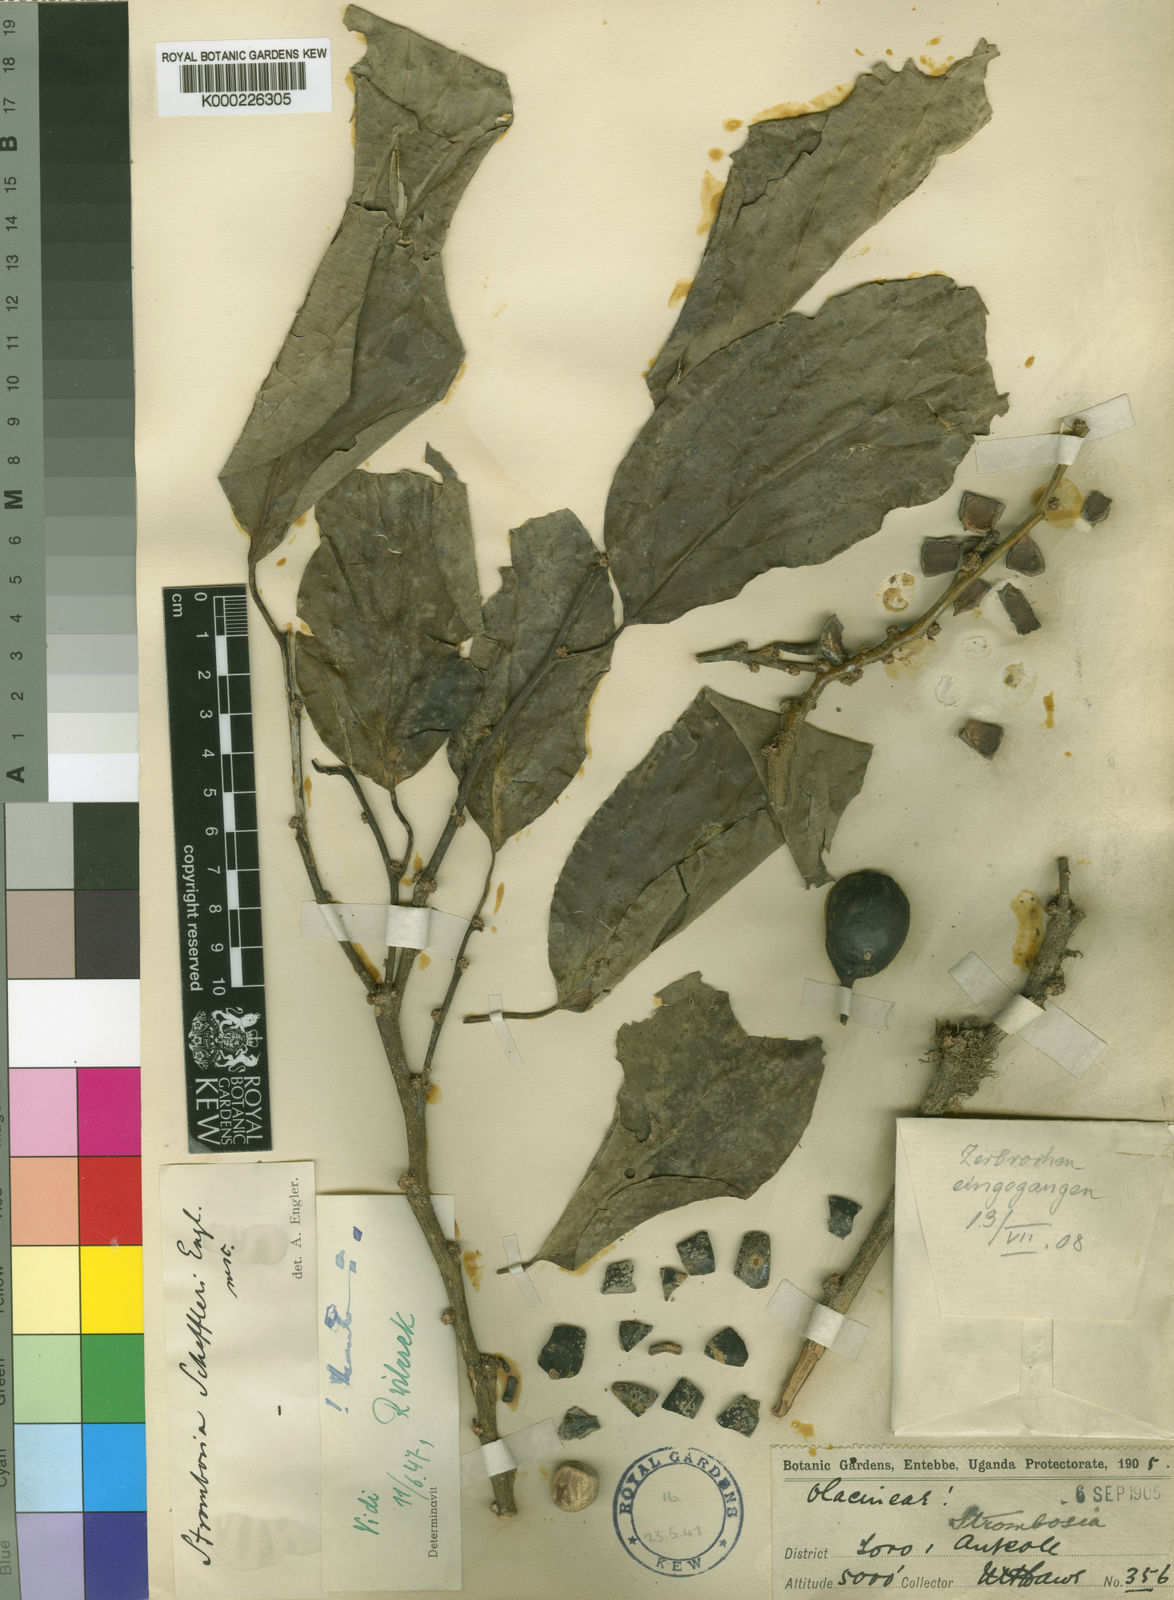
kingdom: Plantae
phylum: Tracheophyta
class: Magnoliopsida
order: Santalales
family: Strombosiaceae
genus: Strombosia
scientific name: Strombosia scheffleri
